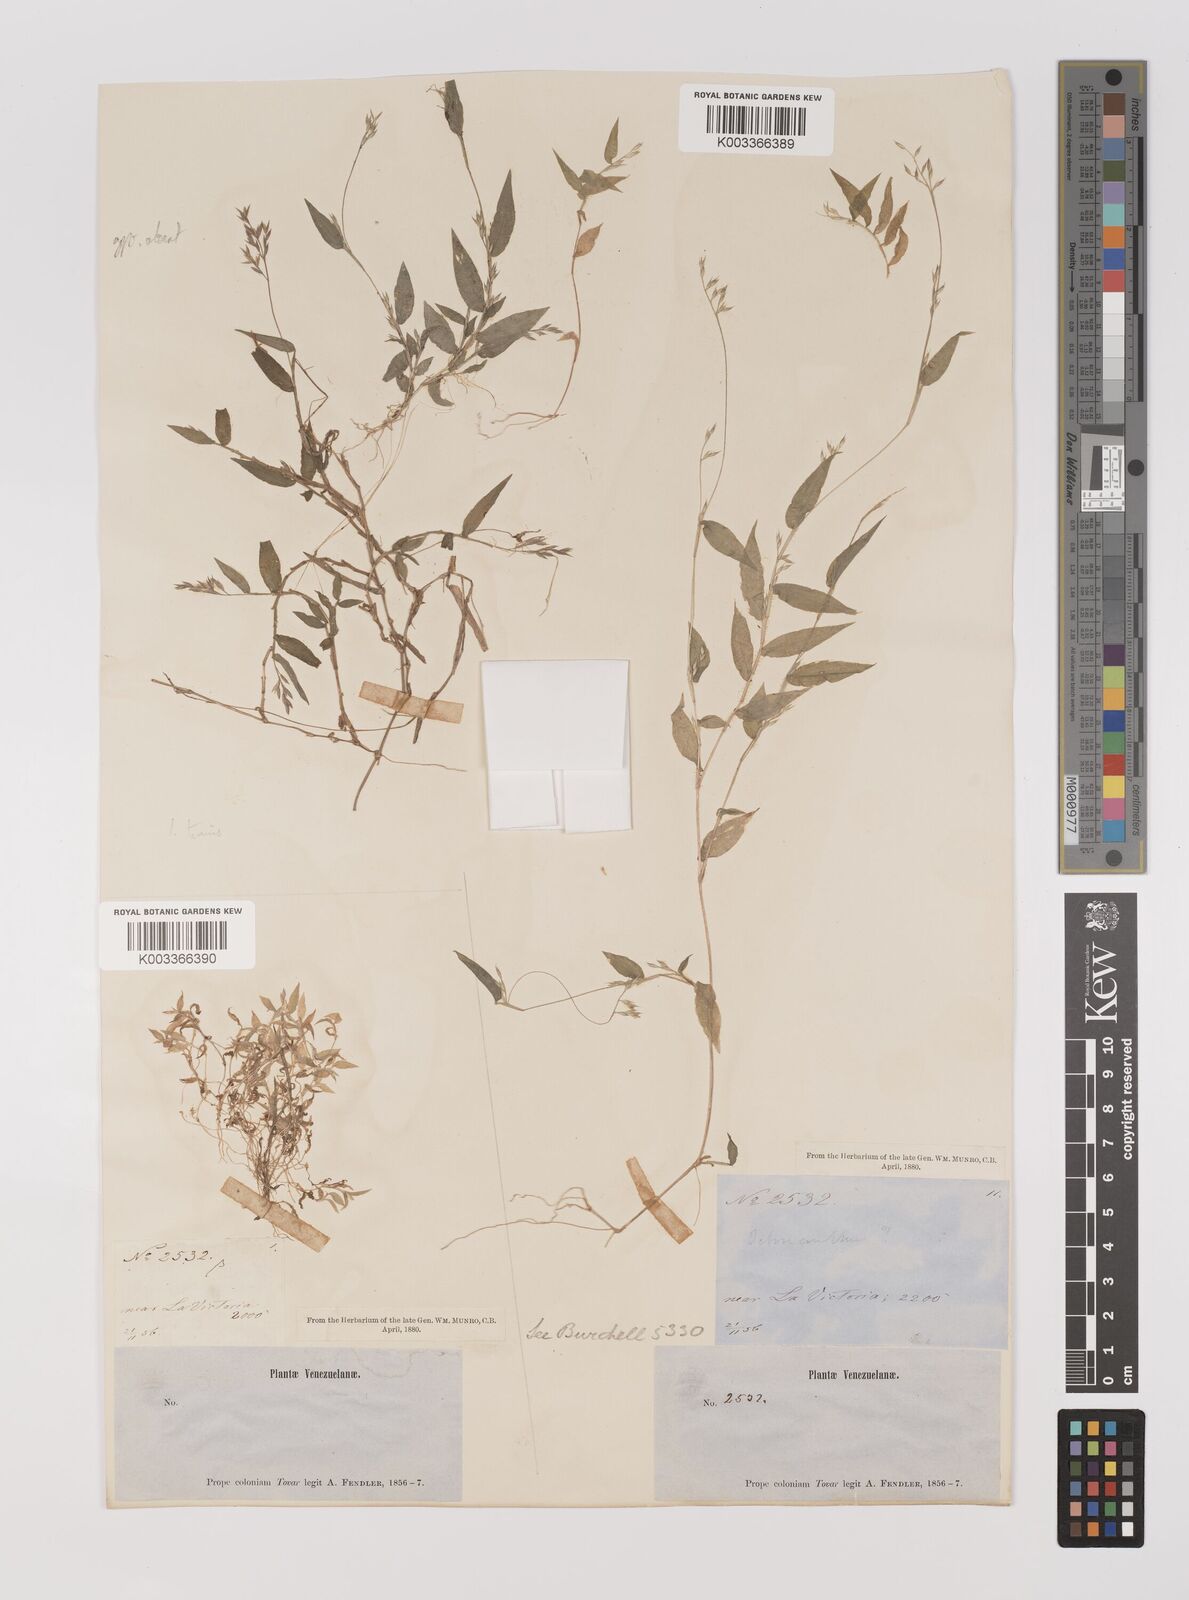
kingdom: Plantae
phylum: Tracheophyta
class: Liliopsida
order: Poales
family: Poaceae
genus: Ichnanthus
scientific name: Ichnanthus tenuis
